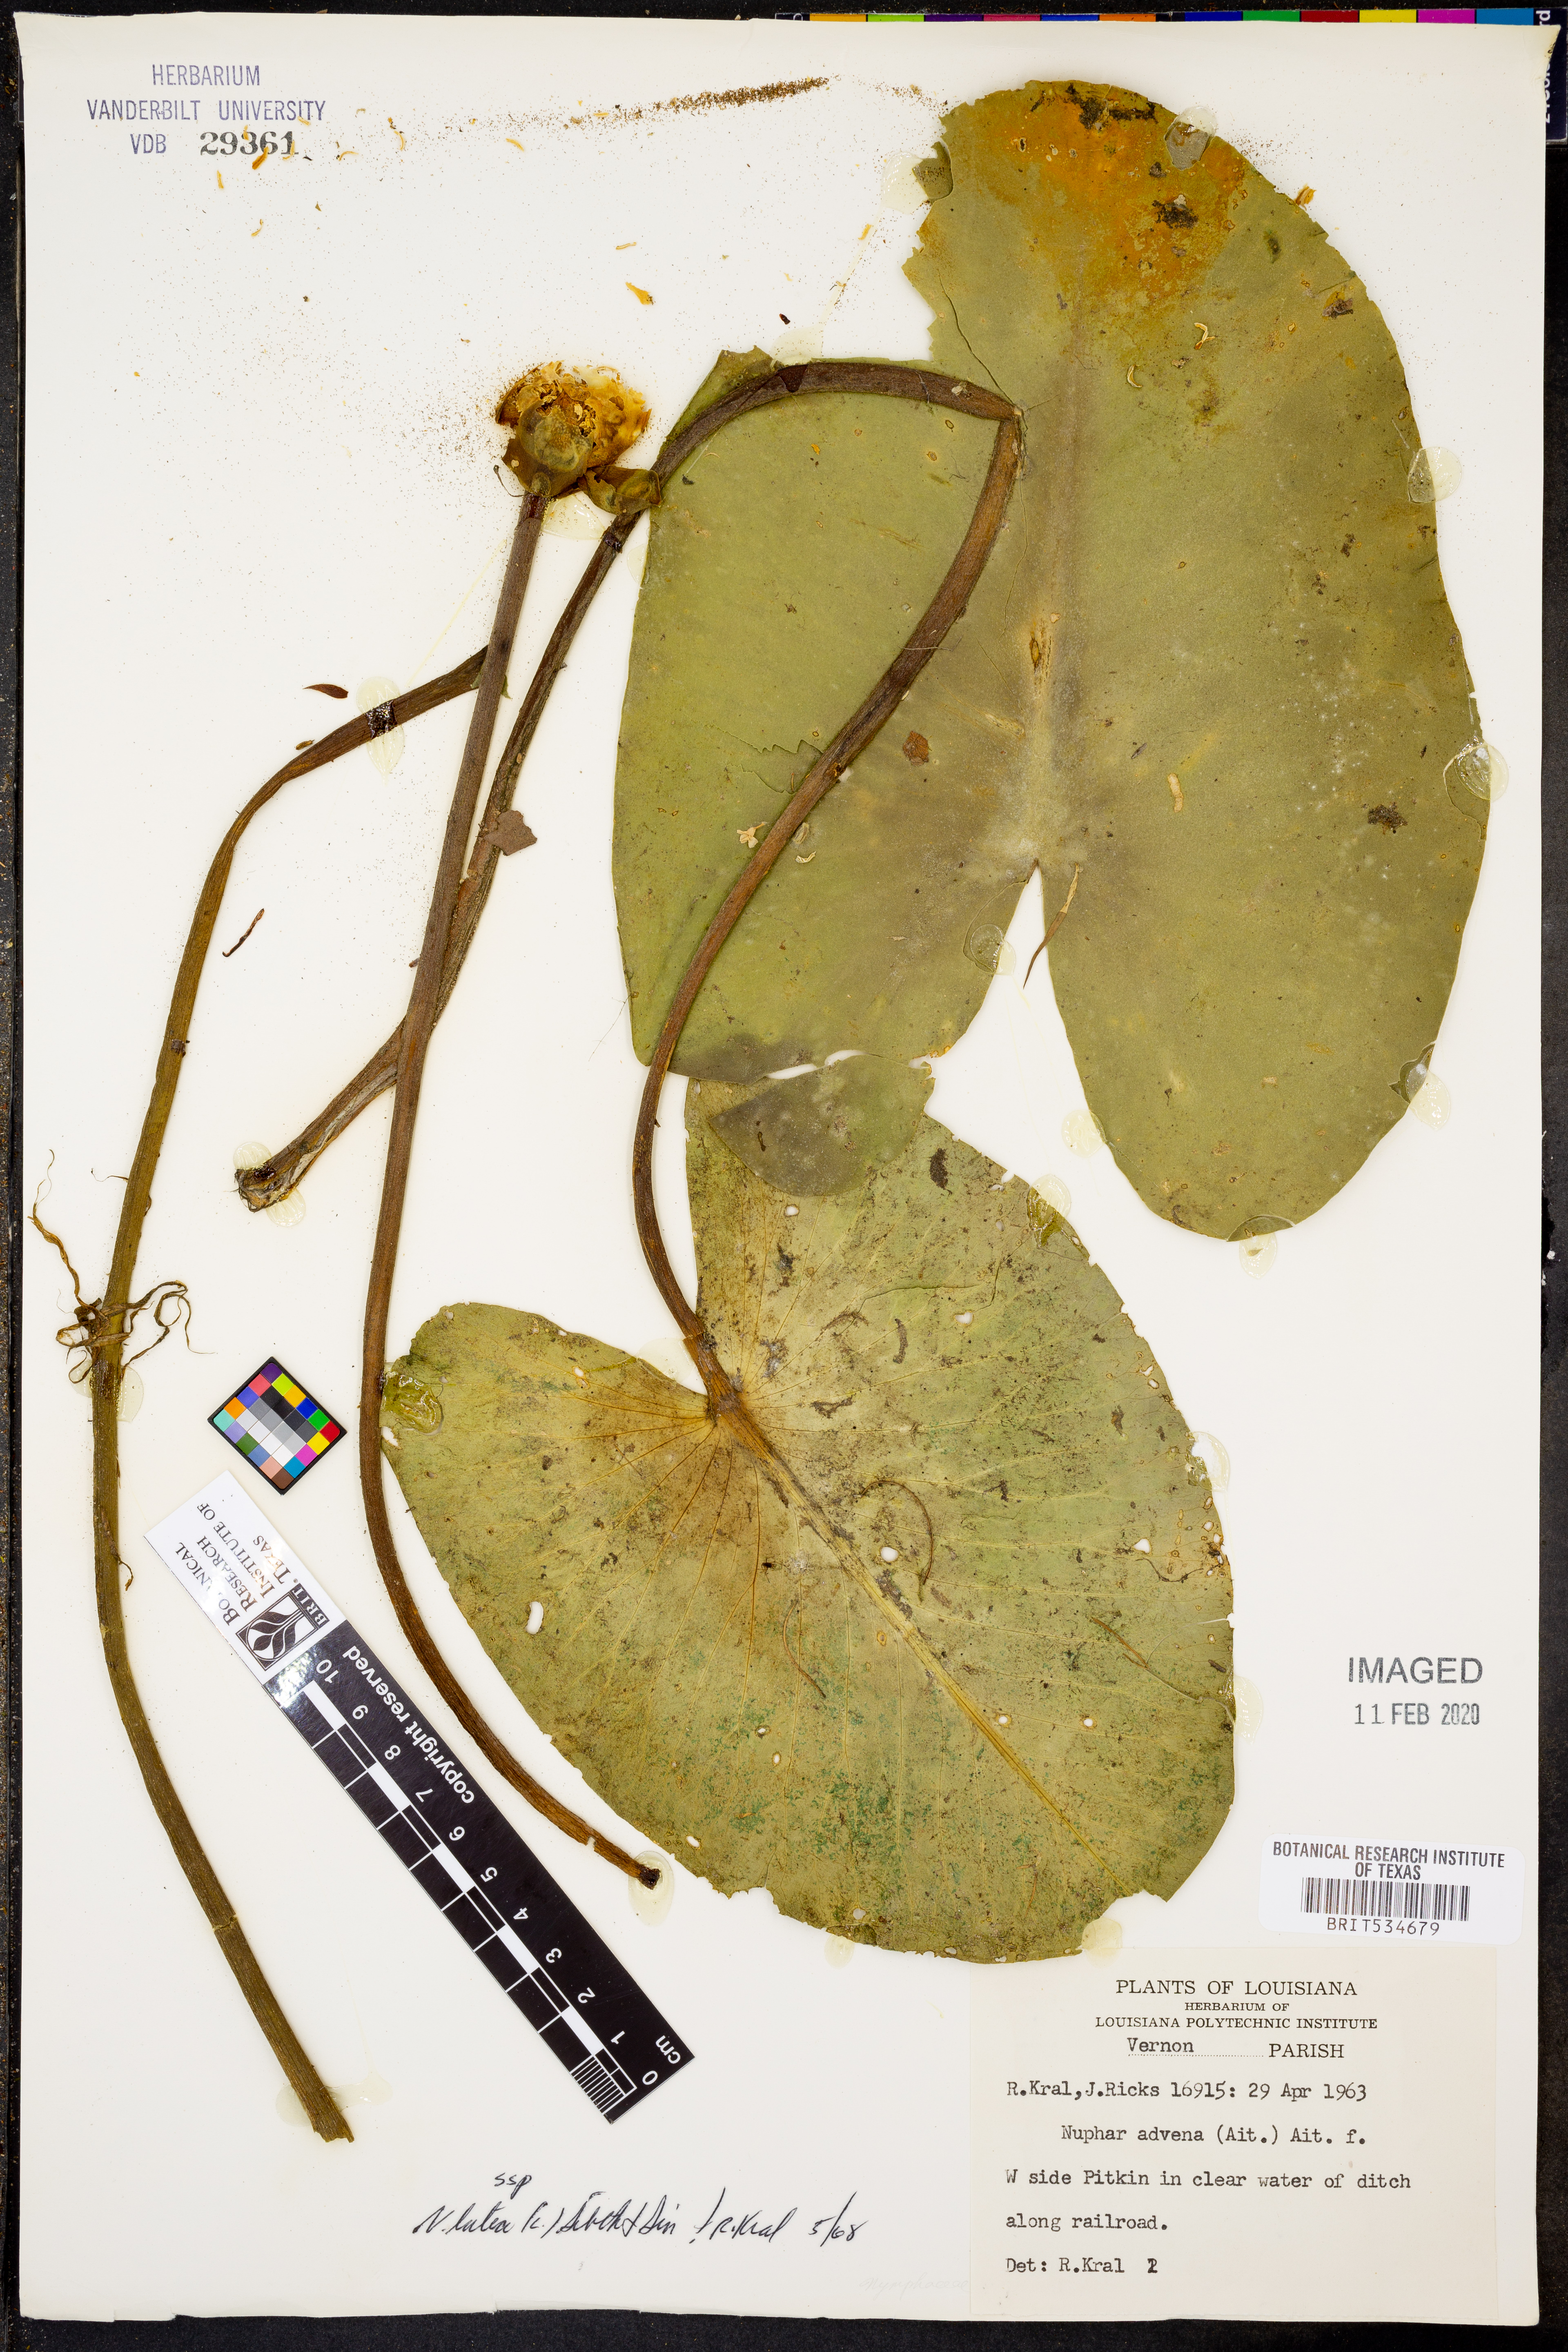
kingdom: Plantae
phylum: Tracheophyta
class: Magnoliopsida
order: Nymphaeales
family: Nymphaeaceae
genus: Nuphar
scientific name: Nuphar advena
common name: Spatter-dock
